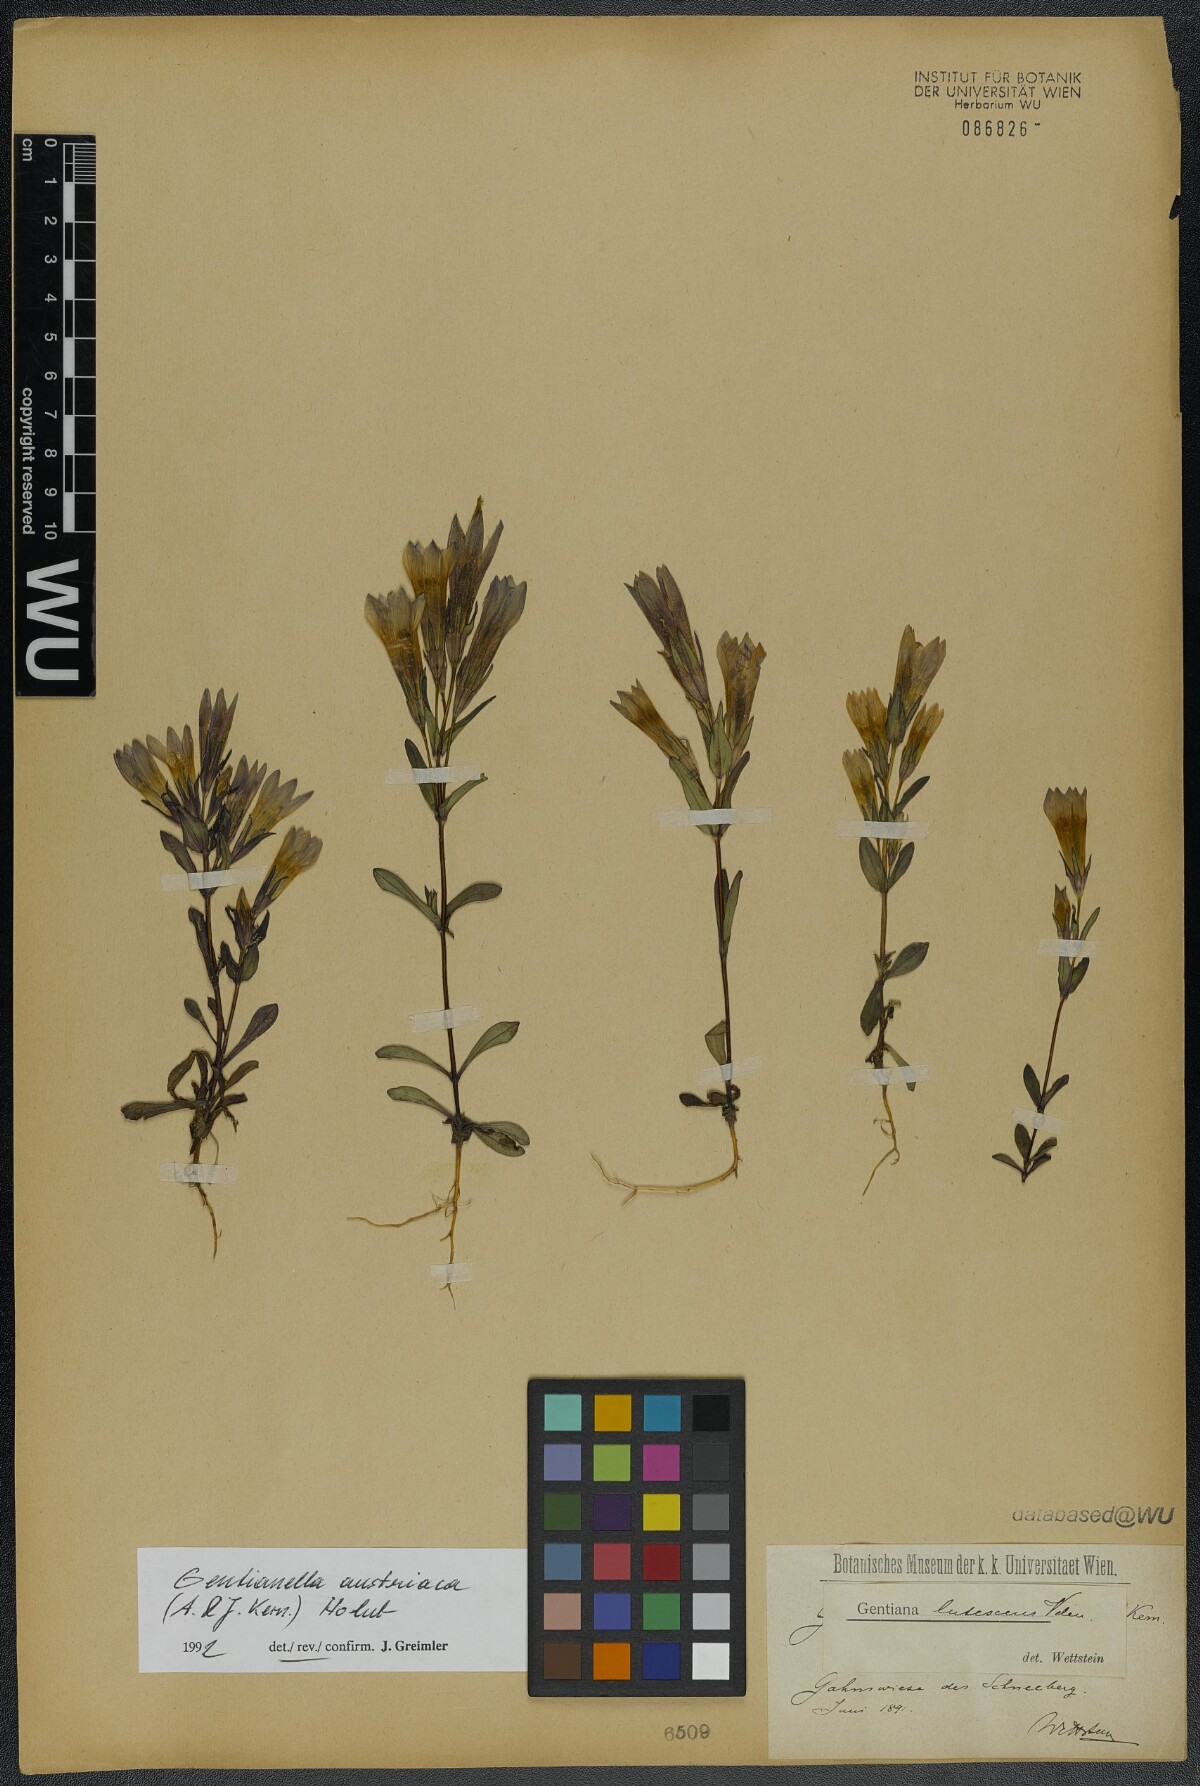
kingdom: Plantae
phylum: Tracheophyta
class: Magnoliopsida
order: Gentianales
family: Gentianaceae
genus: Gentianella
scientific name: Gentianella austriaca
